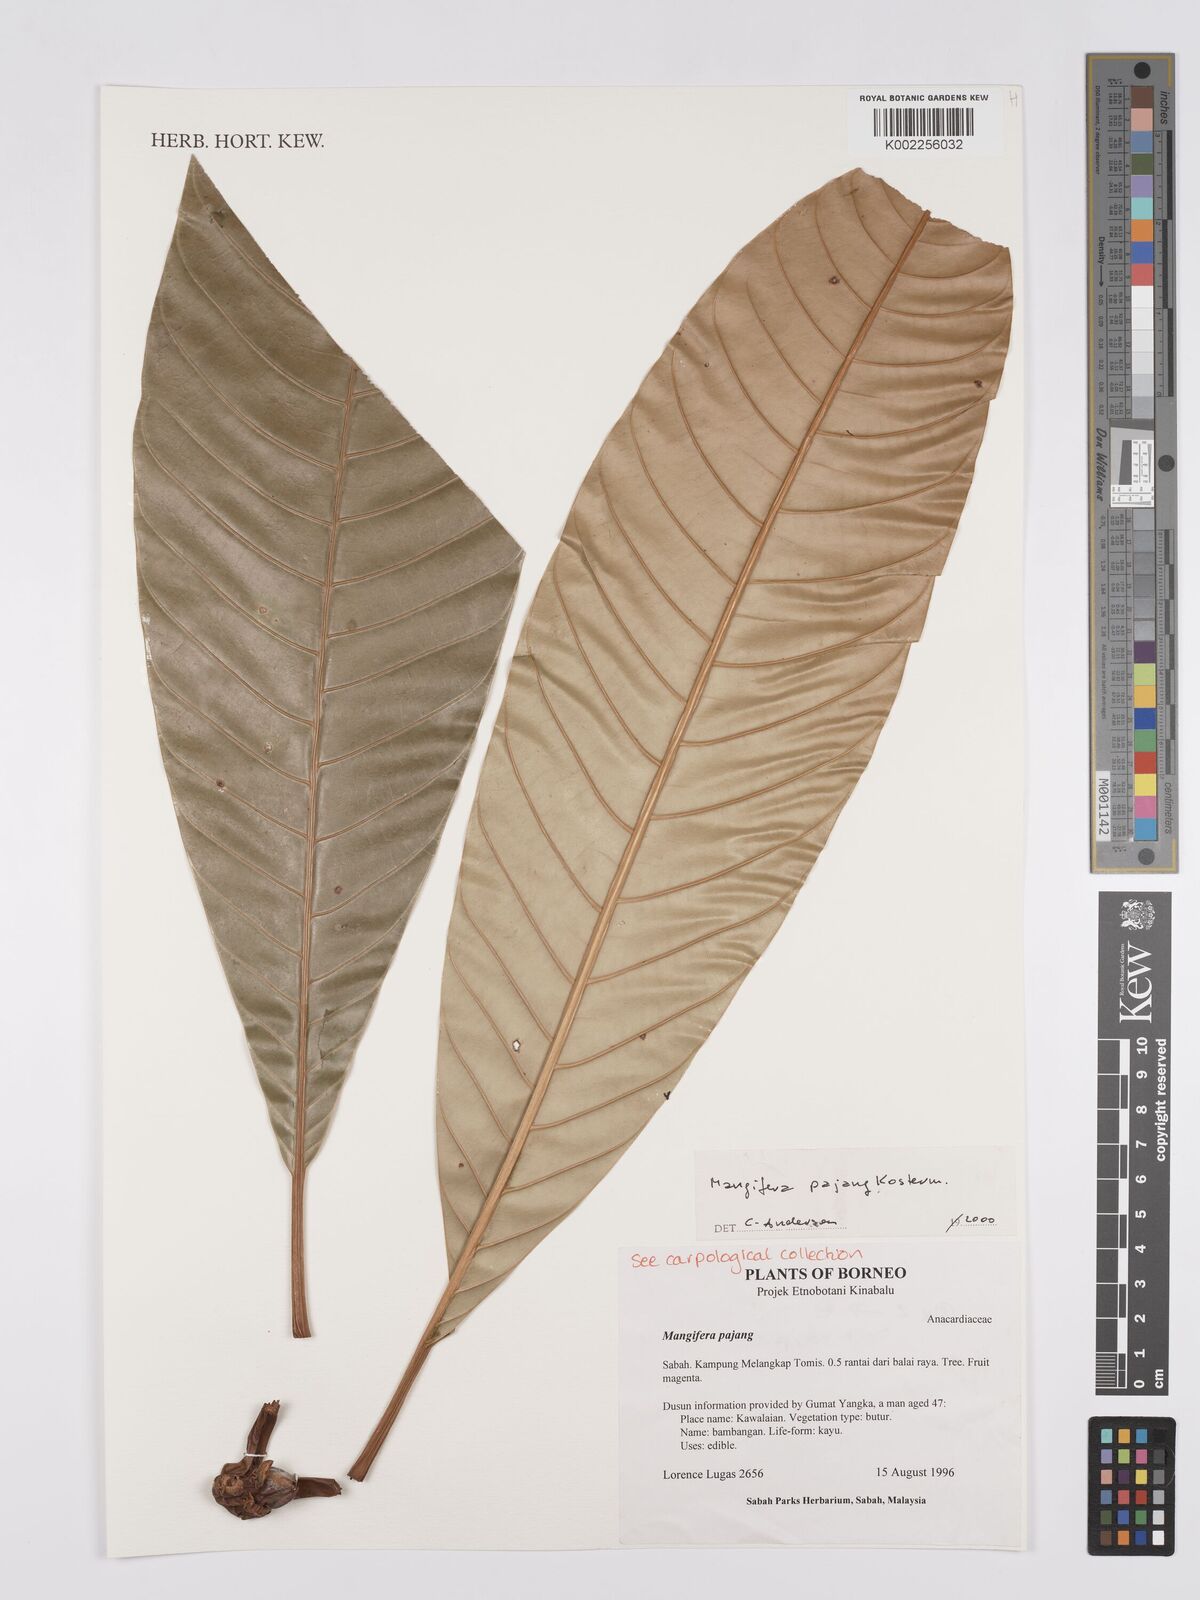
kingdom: Plantae
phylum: Tracheophyta
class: Magnoliopsida
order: Sapindales
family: Anacardiaceae
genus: Mangifera
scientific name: Mangifera pajang
